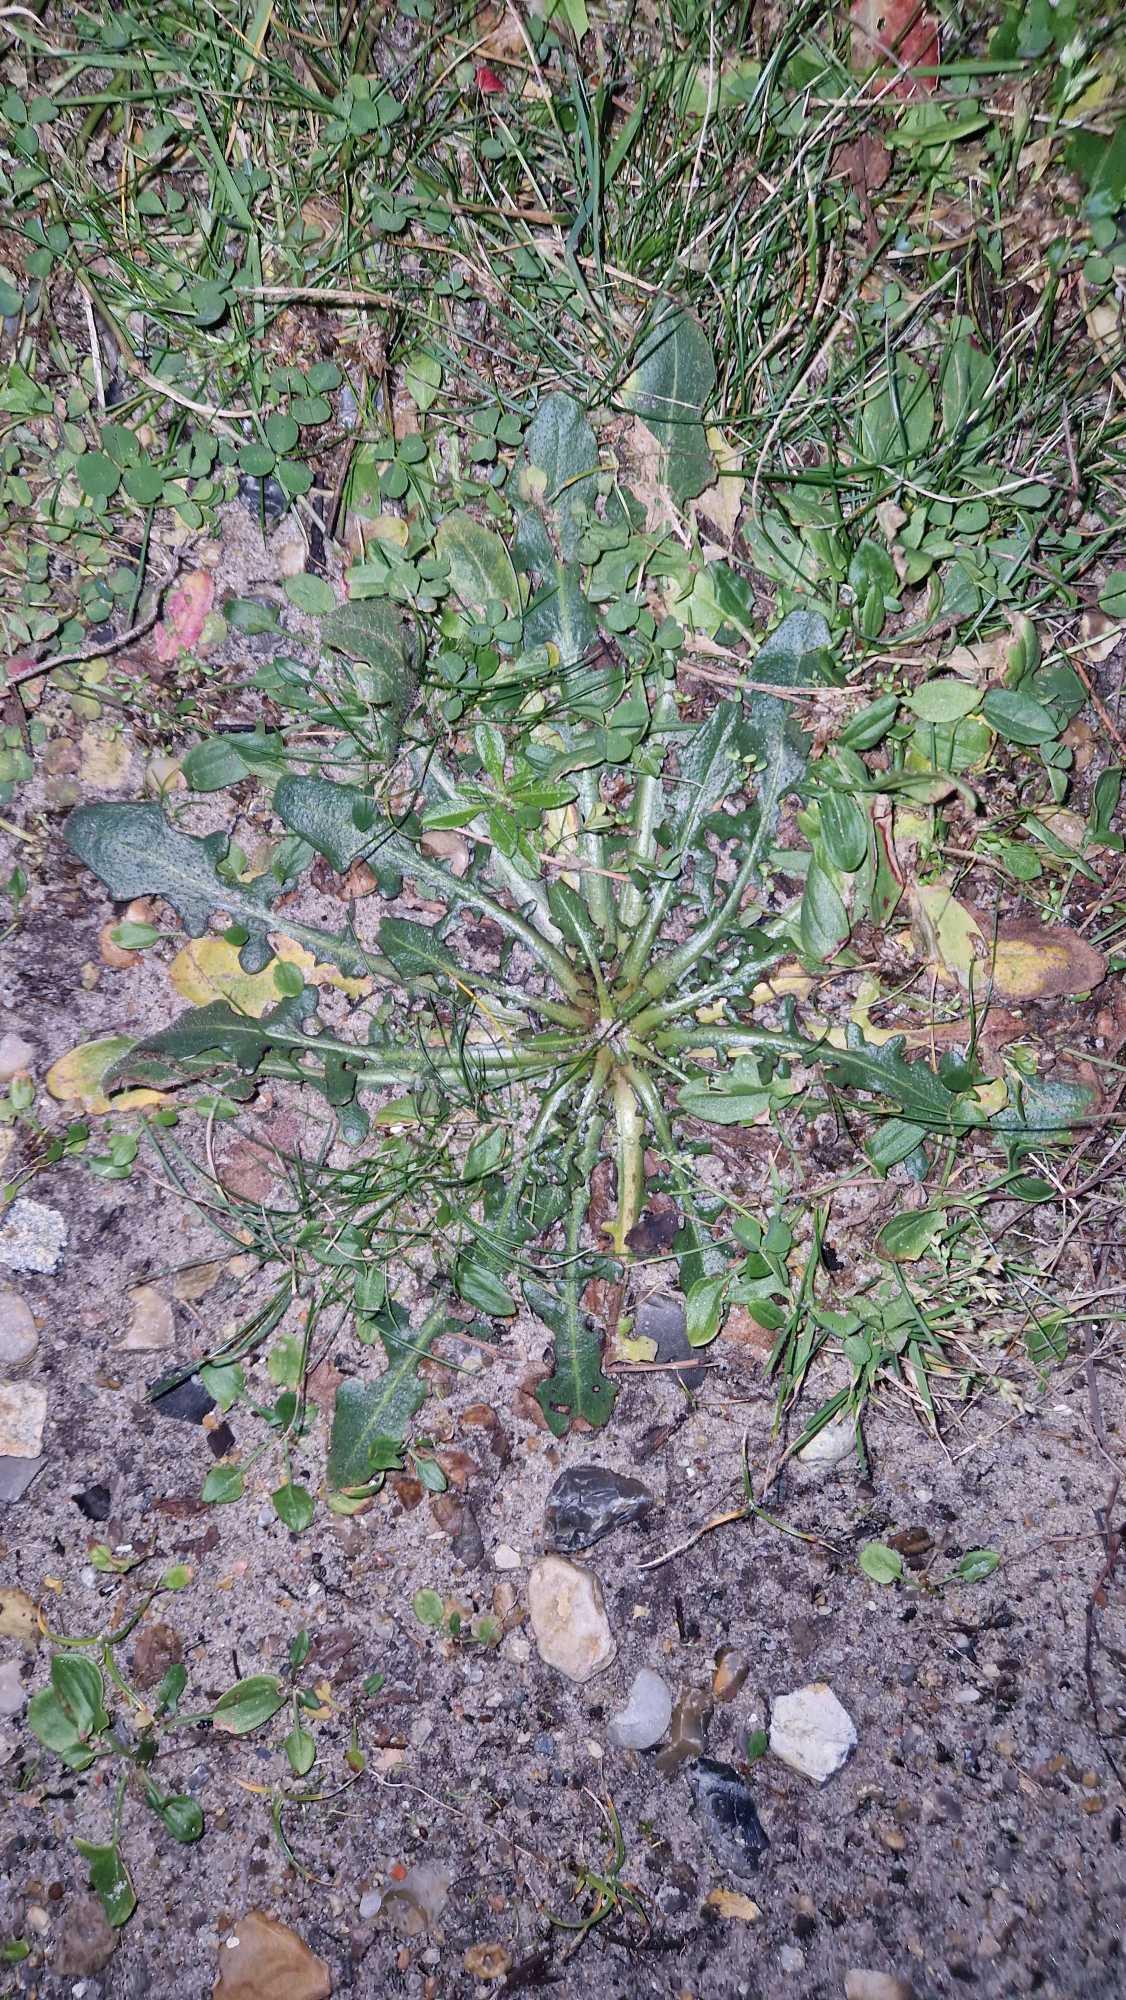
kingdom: Plantae
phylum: Tracheophyta
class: Magnoliopsida
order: Asterales
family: Asteraceae
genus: Hypochaeris
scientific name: Hypochaeris radicata
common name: Almindelig kongepen
